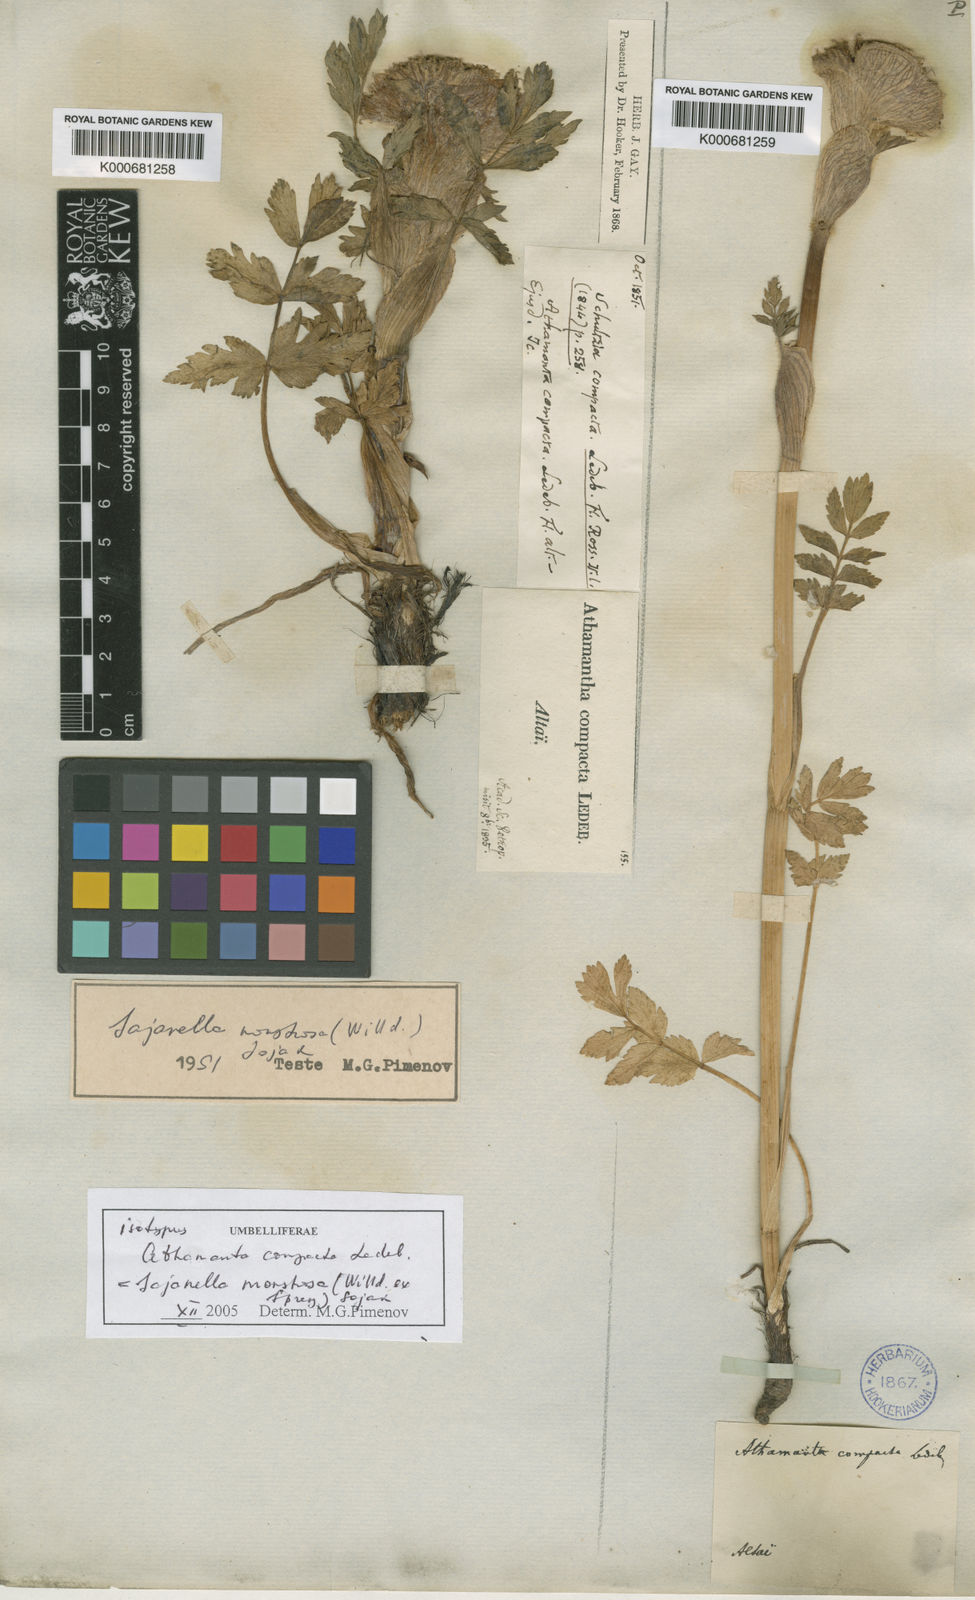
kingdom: Plantae
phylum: Tracheophyta
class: Magnoliopsida
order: Apiales
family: Apiaceae
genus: Sajanella
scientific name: Sajanella monstrosa
